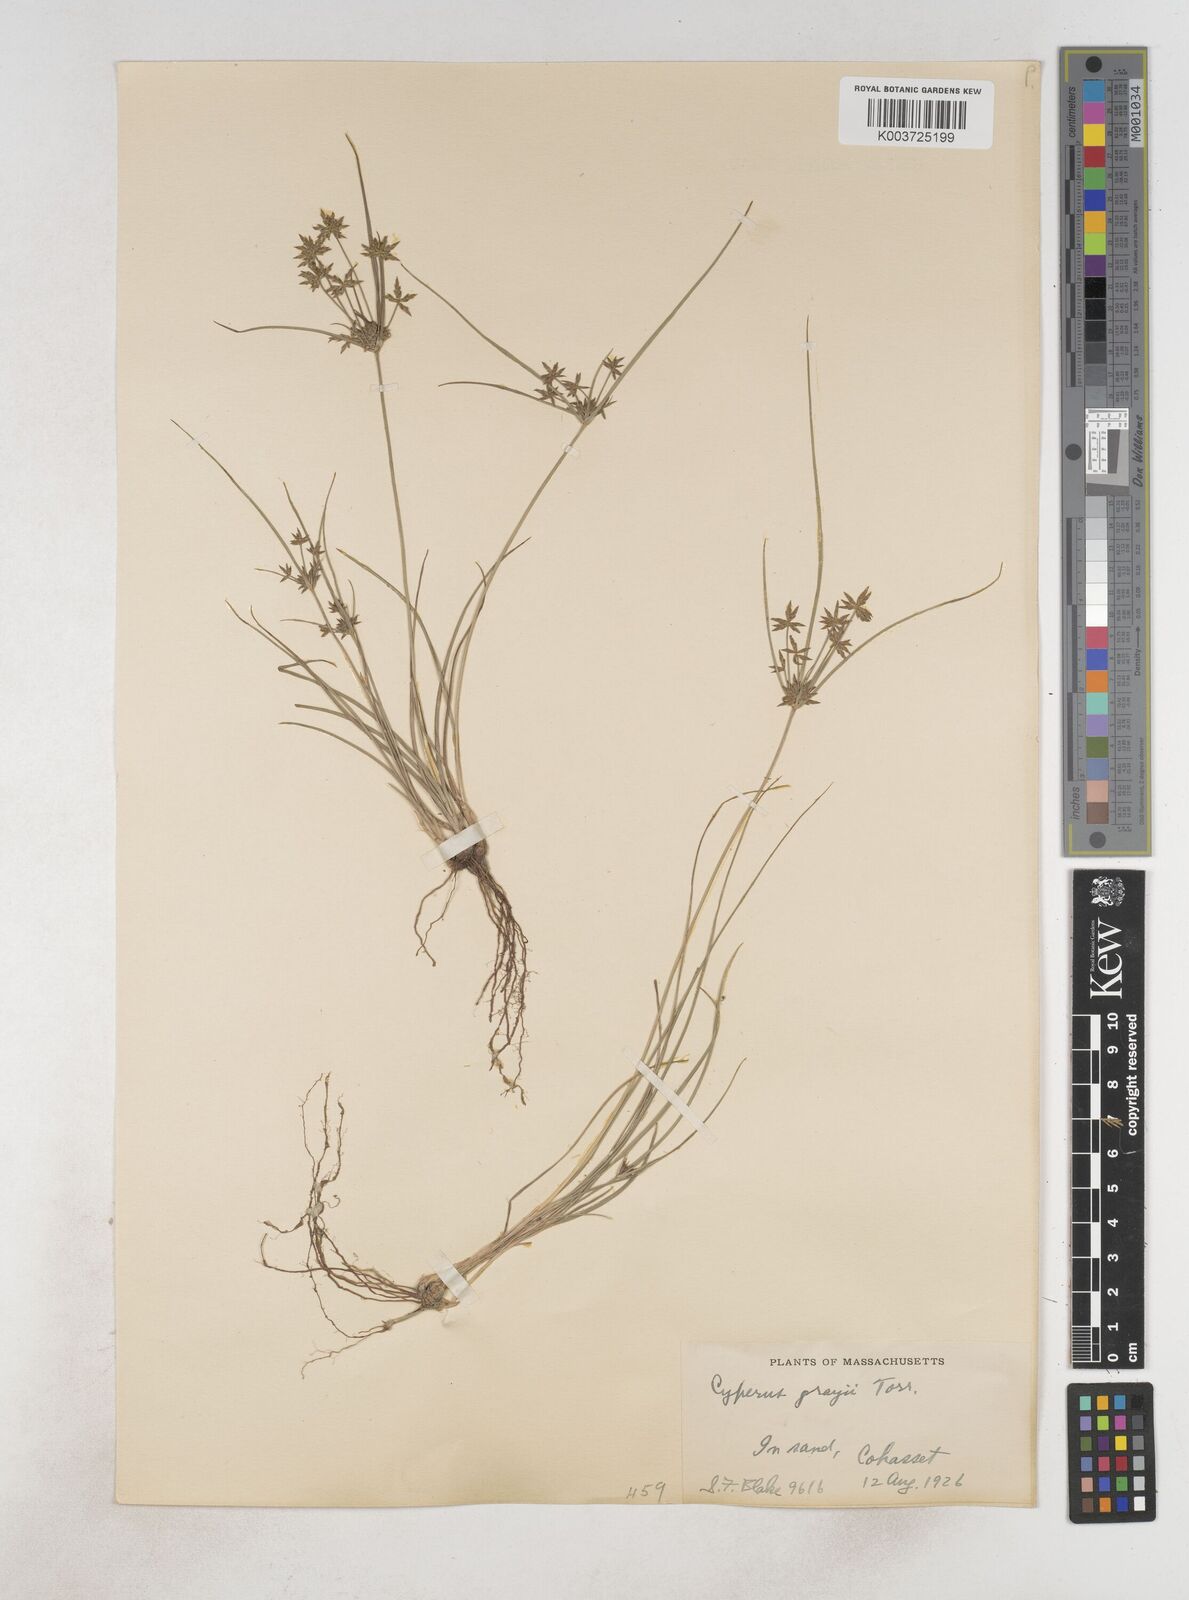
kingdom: Plantae
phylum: Tracheophyta
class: Liliopsida
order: Poales
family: Cyperaceae
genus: Cyperus
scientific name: Cyperus grayi
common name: Gray's flat sedge
